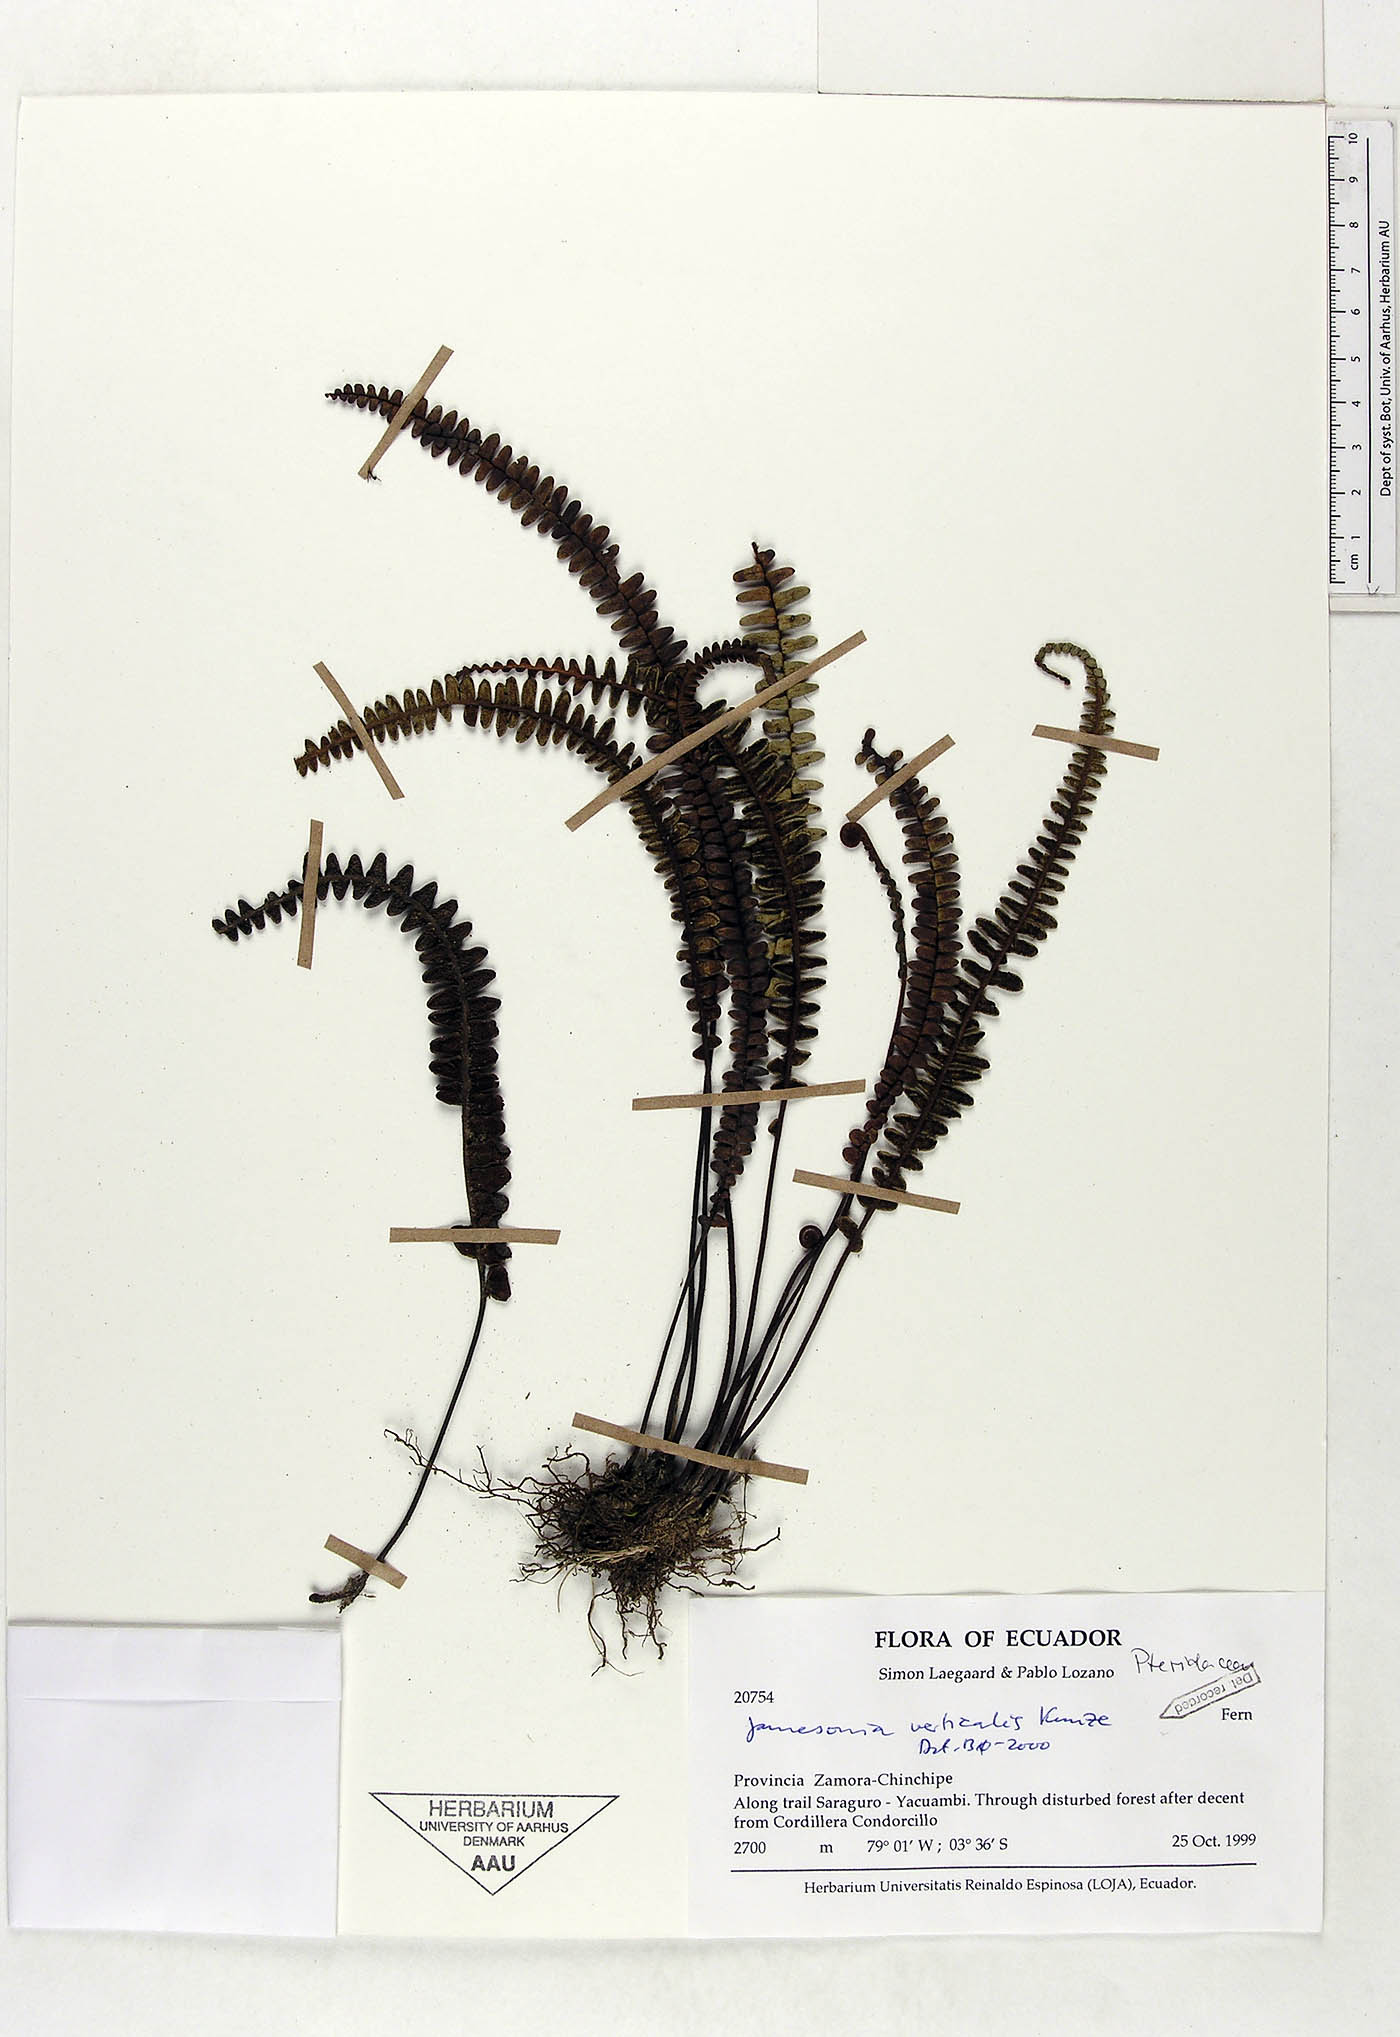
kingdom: Plantae
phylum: Tracheophyta
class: Polypodiopsida
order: Polypodiales
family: Pteridaceae
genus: Jamesonia
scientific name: Jamesonia verticalis
